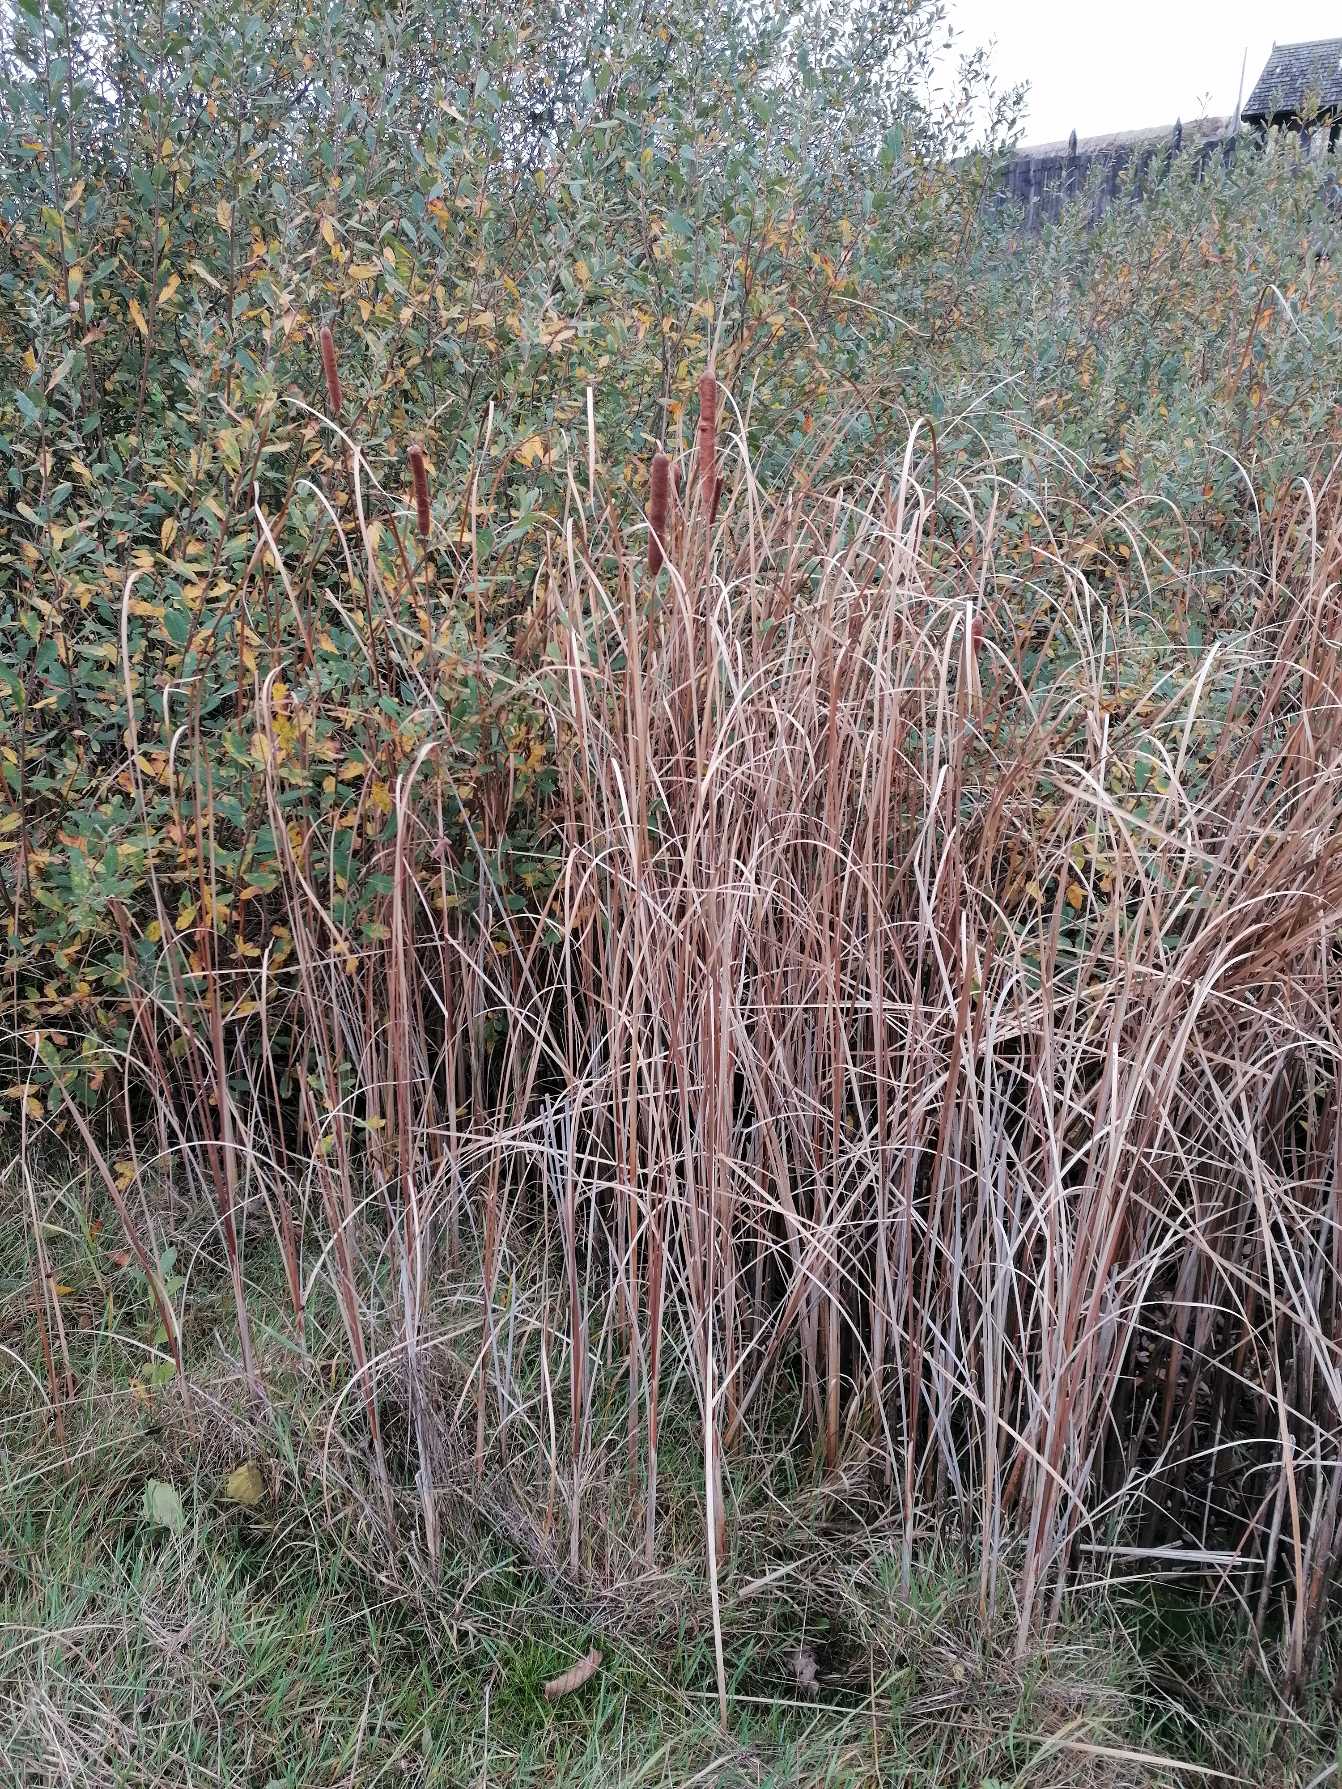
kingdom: Plantae
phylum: Tracheophyta
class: Liliopsida
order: Poales
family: Typhaceae
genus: Typha
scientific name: Typha angustifolia
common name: Smalbladet dunhammer
